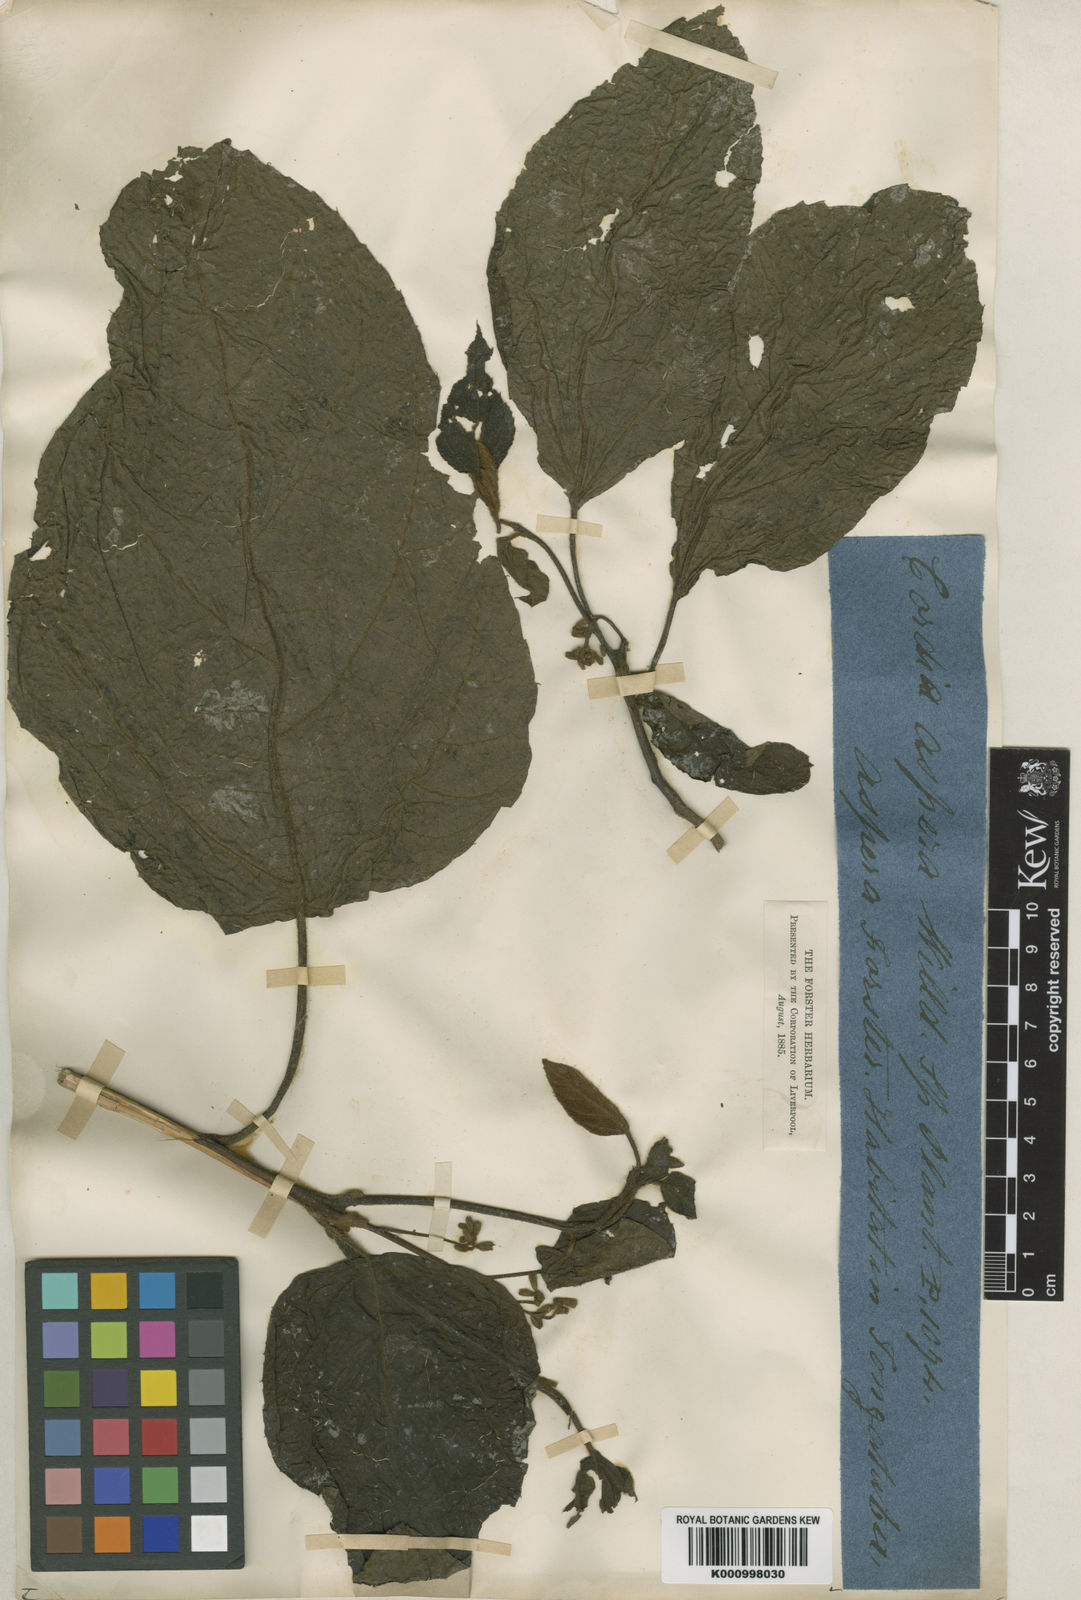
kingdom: Plantae
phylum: Tracheophyta
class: Magnoliopsida
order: Boraginales
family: Cordiaceae
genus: Cordia
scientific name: Cordia aspera
